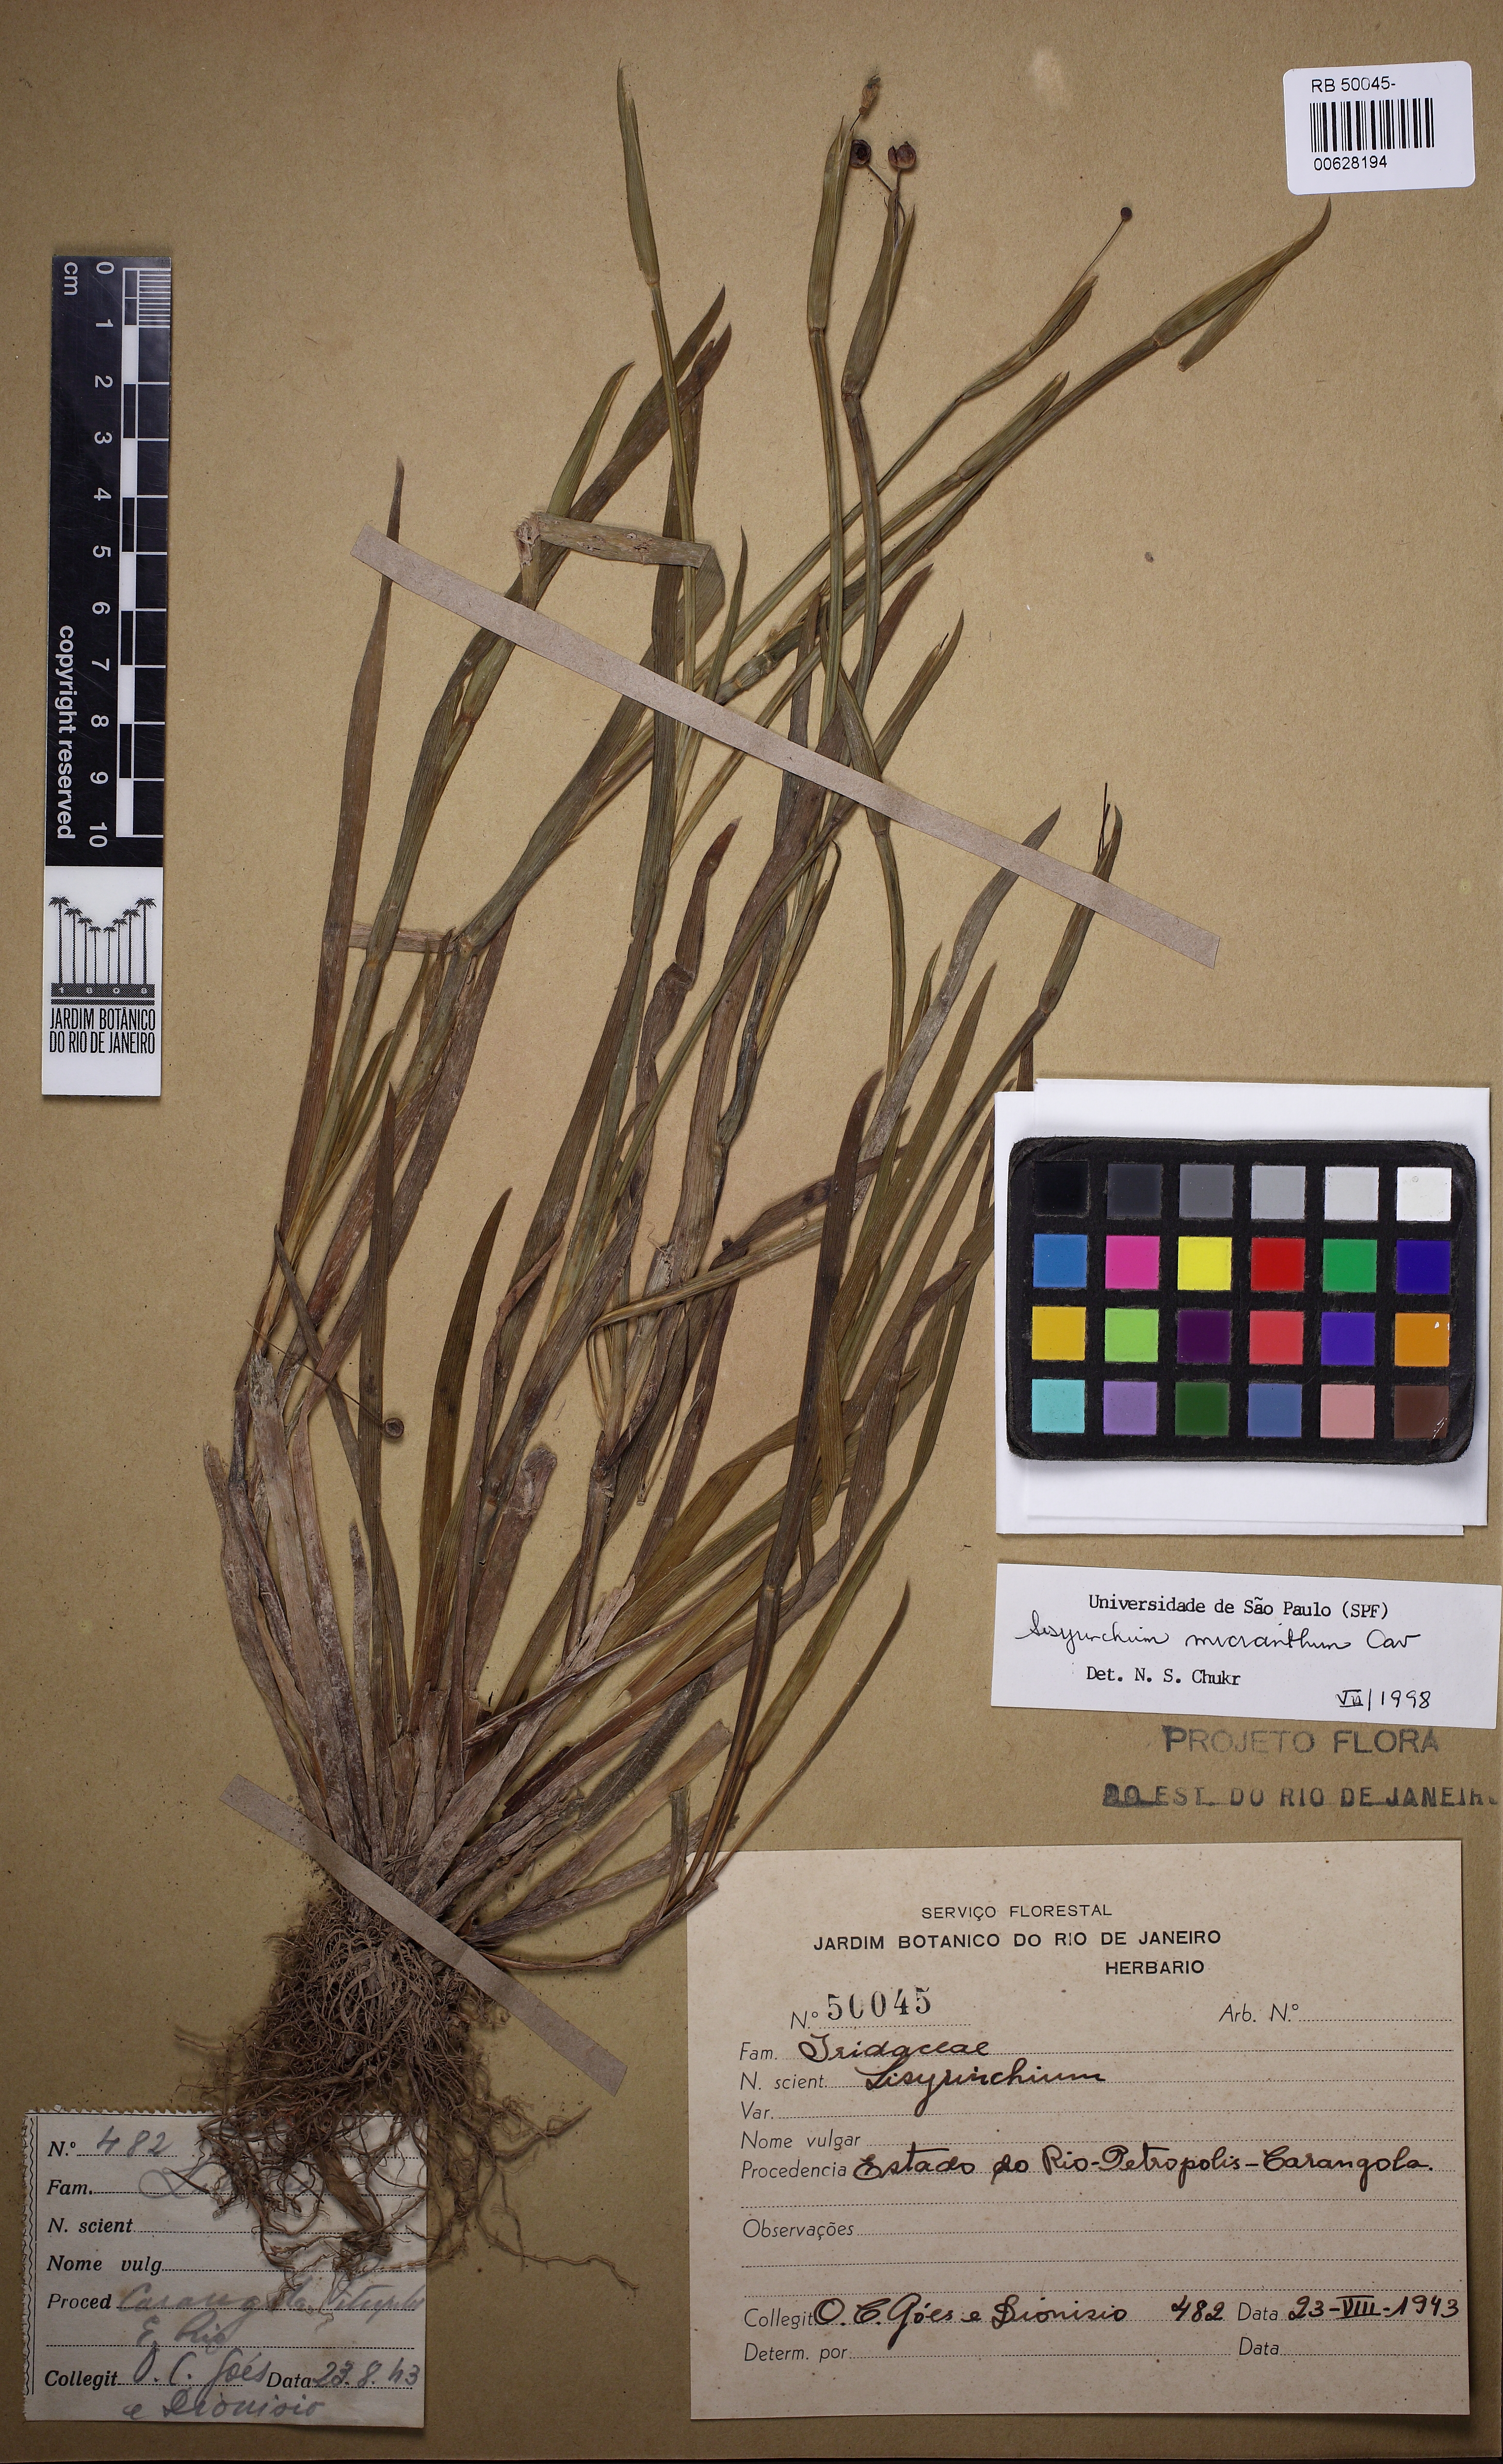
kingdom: Plantae
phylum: Tracheophyta
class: Liliopsida
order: Asparagales
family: Iridaceae
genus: Sisyrinchium
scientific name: Sisyrinchium micranthum
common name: Bermuda pigroot
